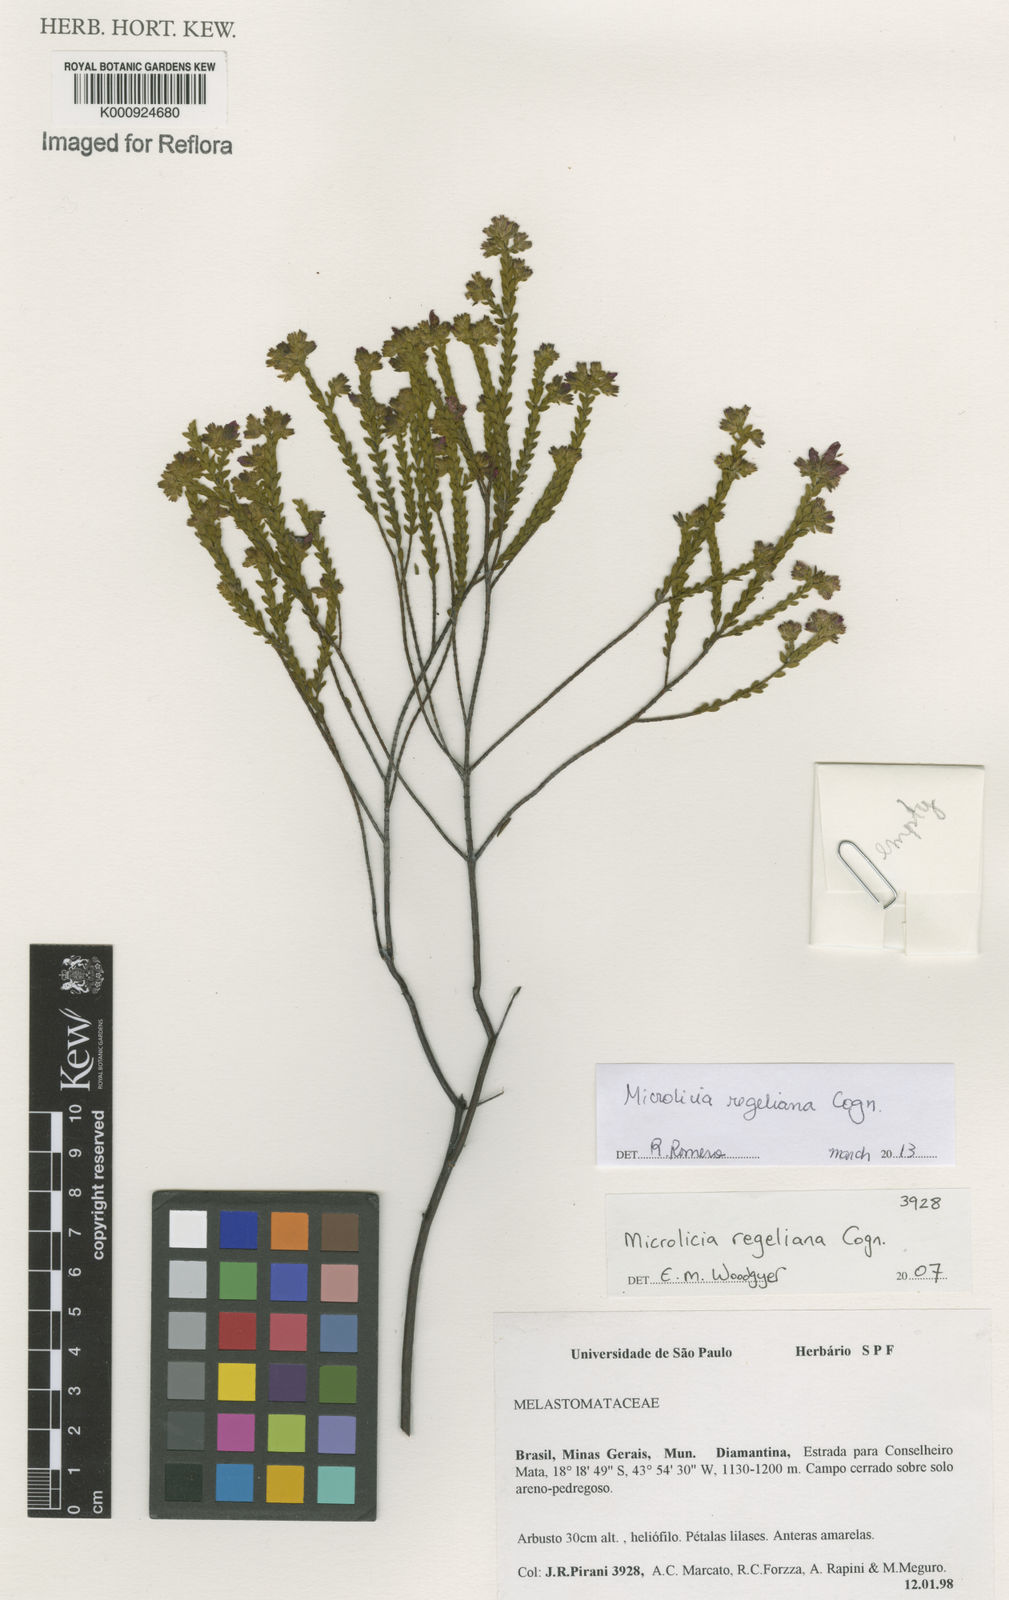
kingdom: Plantae
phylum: Tracheophyta
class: Magnoliopsida
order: Myrtales
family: Melastomataceae
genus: Microlicia
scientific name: Microlicia regeliana
